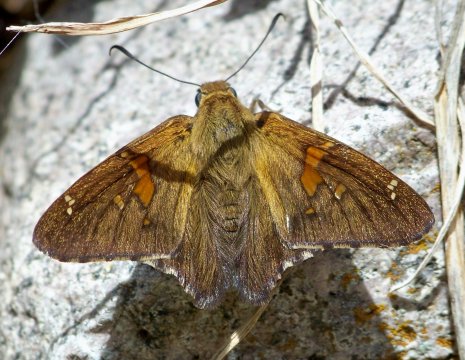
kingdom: Animalia
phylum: Arthropoda
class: Insecta
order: Lepidoptera
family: Hesperiidae
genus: Epargyreus
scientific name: Epargyreus clarus
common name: Silver-spotted Skipper
